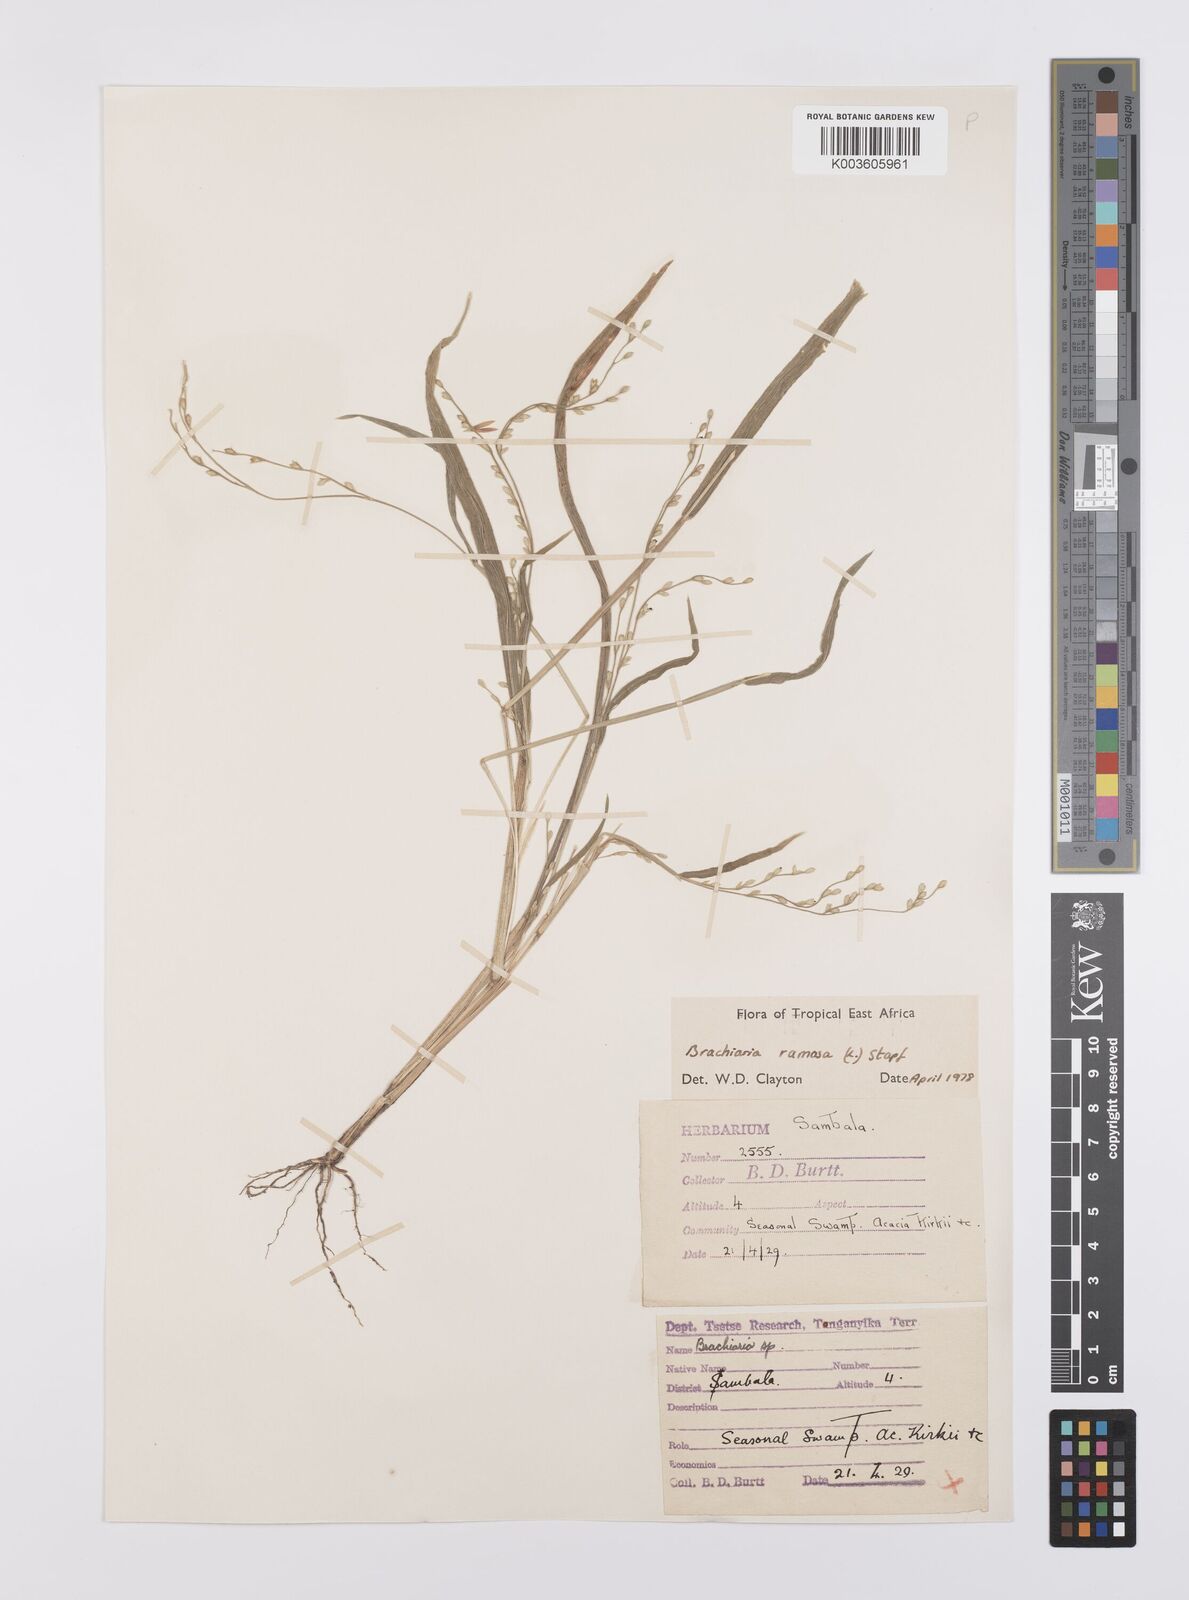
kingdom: Plantae
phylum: Tracheophyta
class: Liliopsida
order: Poales
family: Poaceae
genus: Urochloa
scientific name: Urochloa ramosa
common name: Browntop millet
